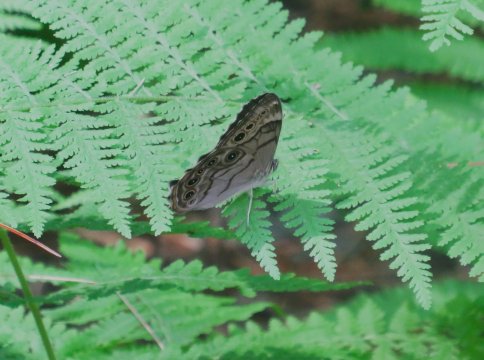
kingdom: Animalia
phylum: Arthropoda
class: Insecta
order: Lepidoptera
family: Nymphalidae
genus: Lethe
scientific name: Lethe anthedon
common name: Northern Pearly-Eye
